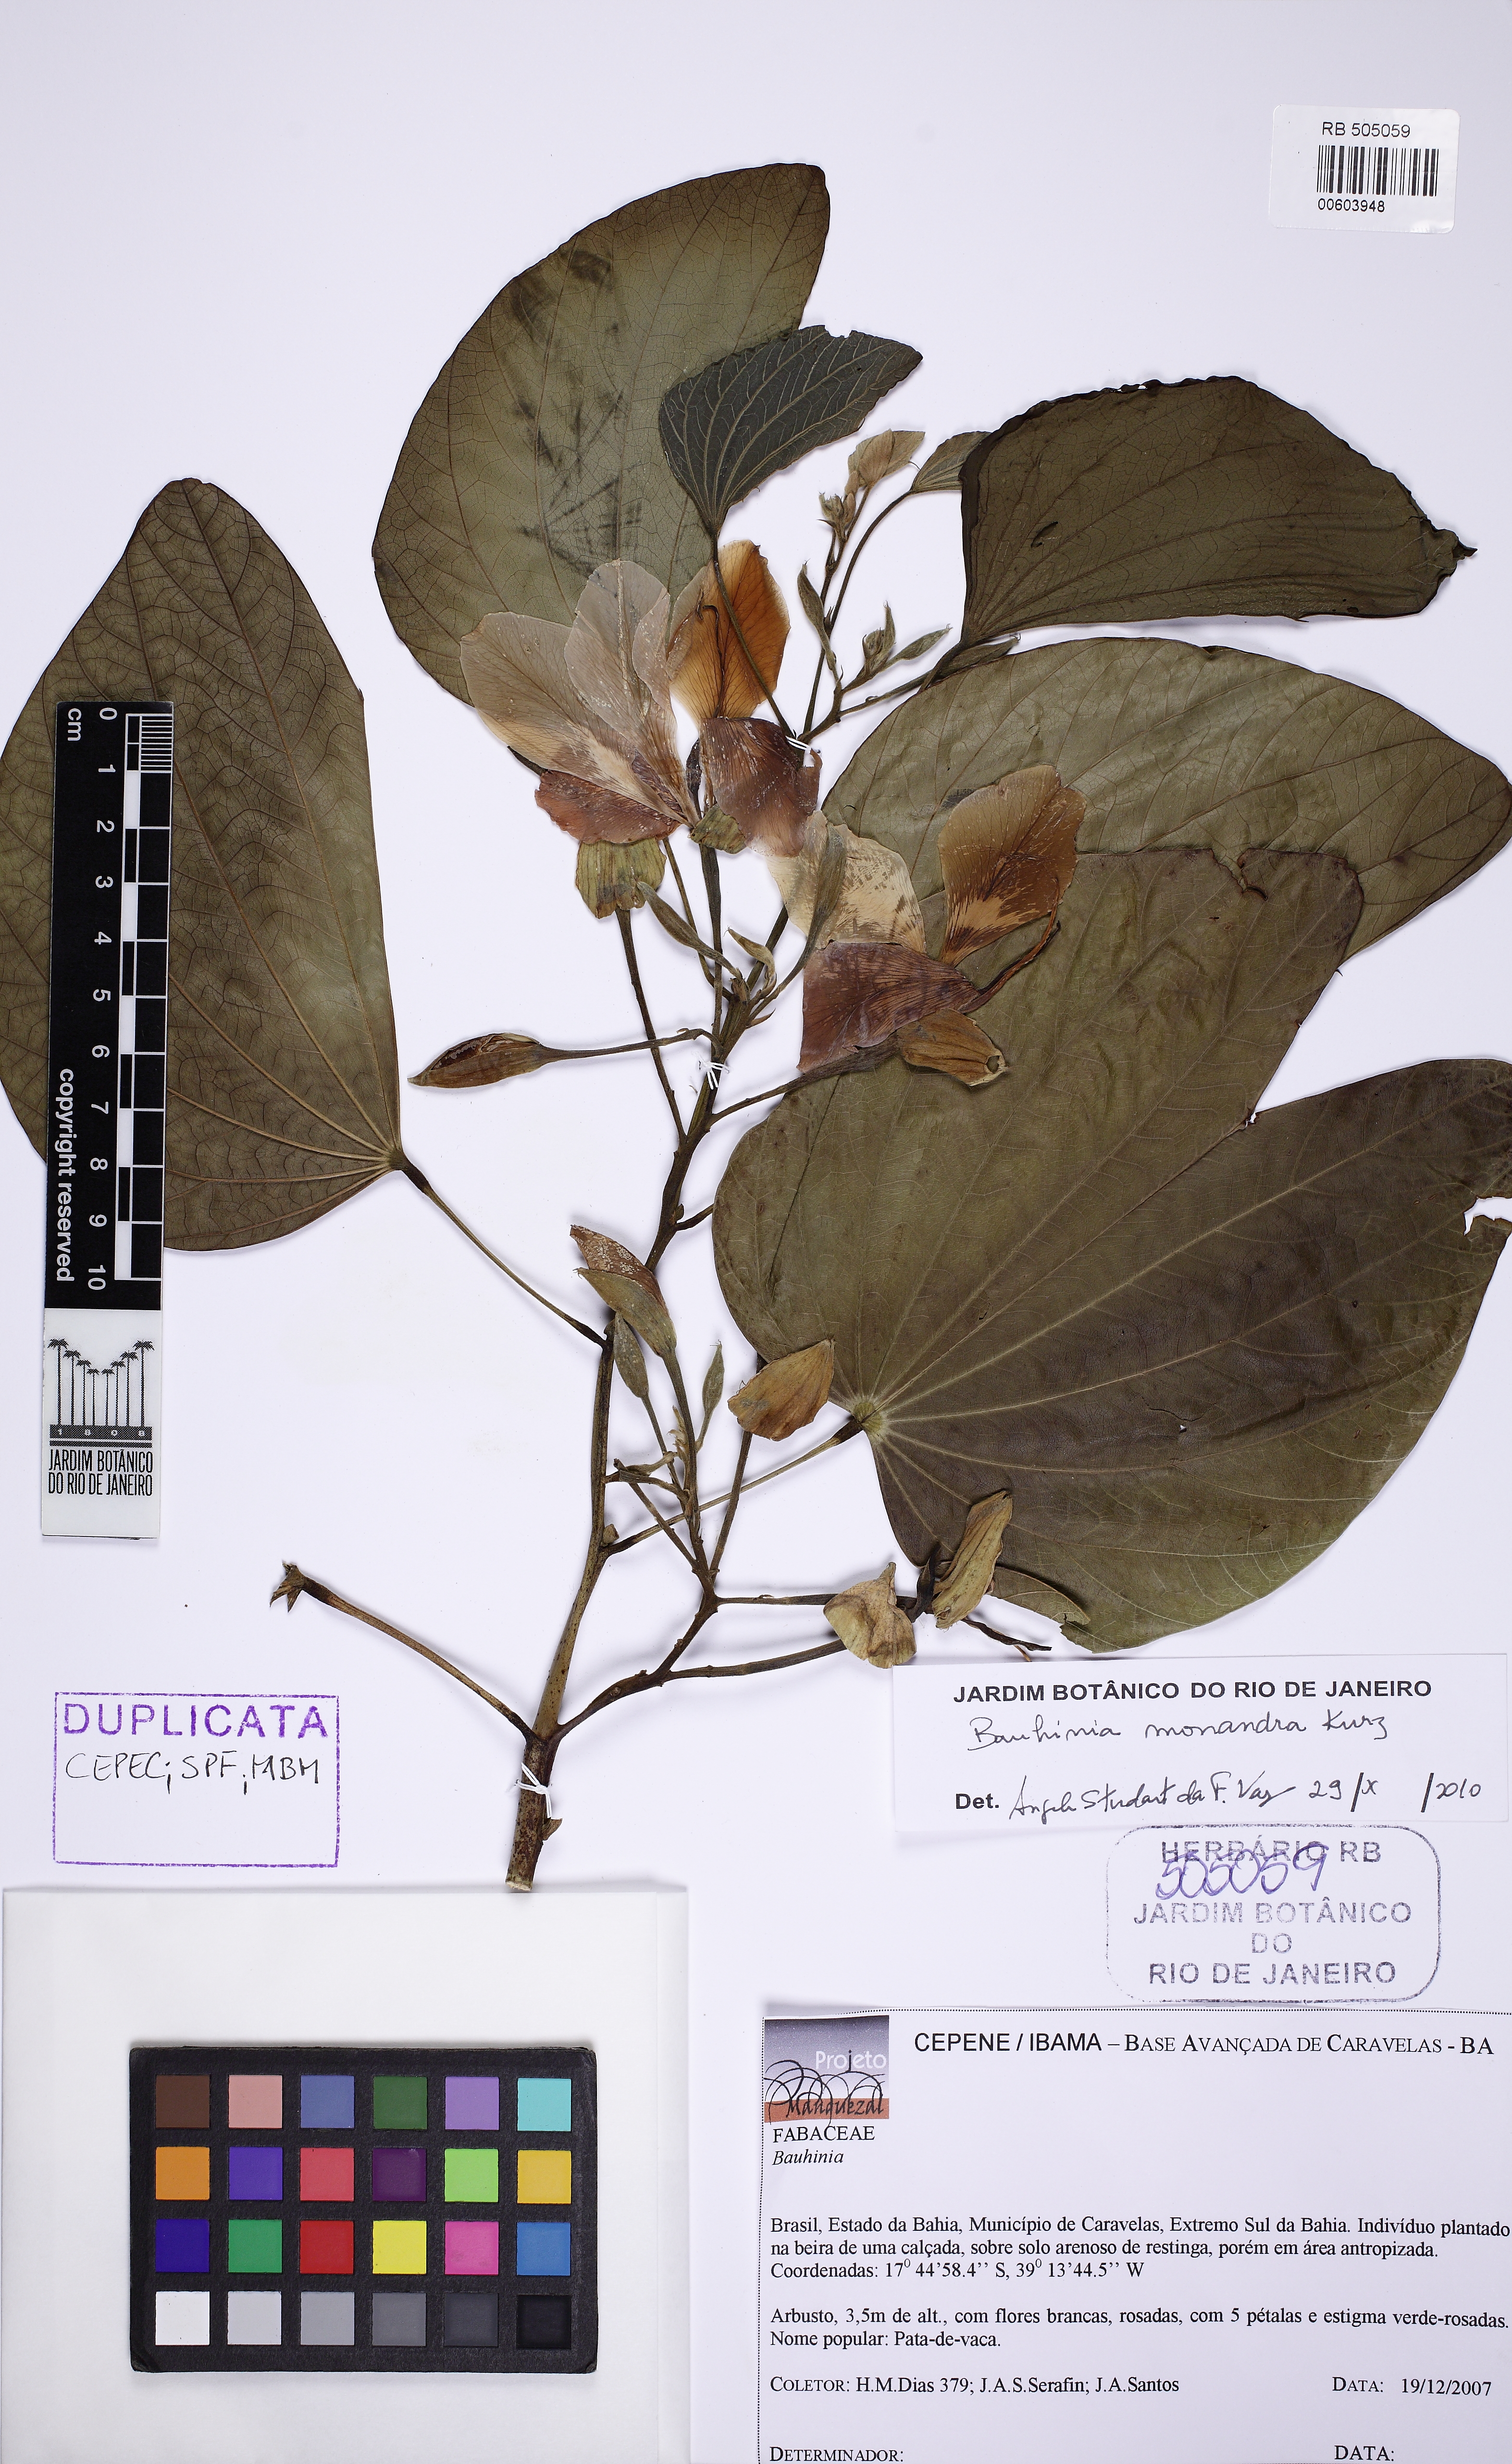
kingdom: Plantae
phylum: Tracheophyta
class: Magnoliopsida
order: Fabales
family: Fabaceae
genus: Bauhinia
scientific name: Bauhinia monandra
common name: Napoleon's plume
